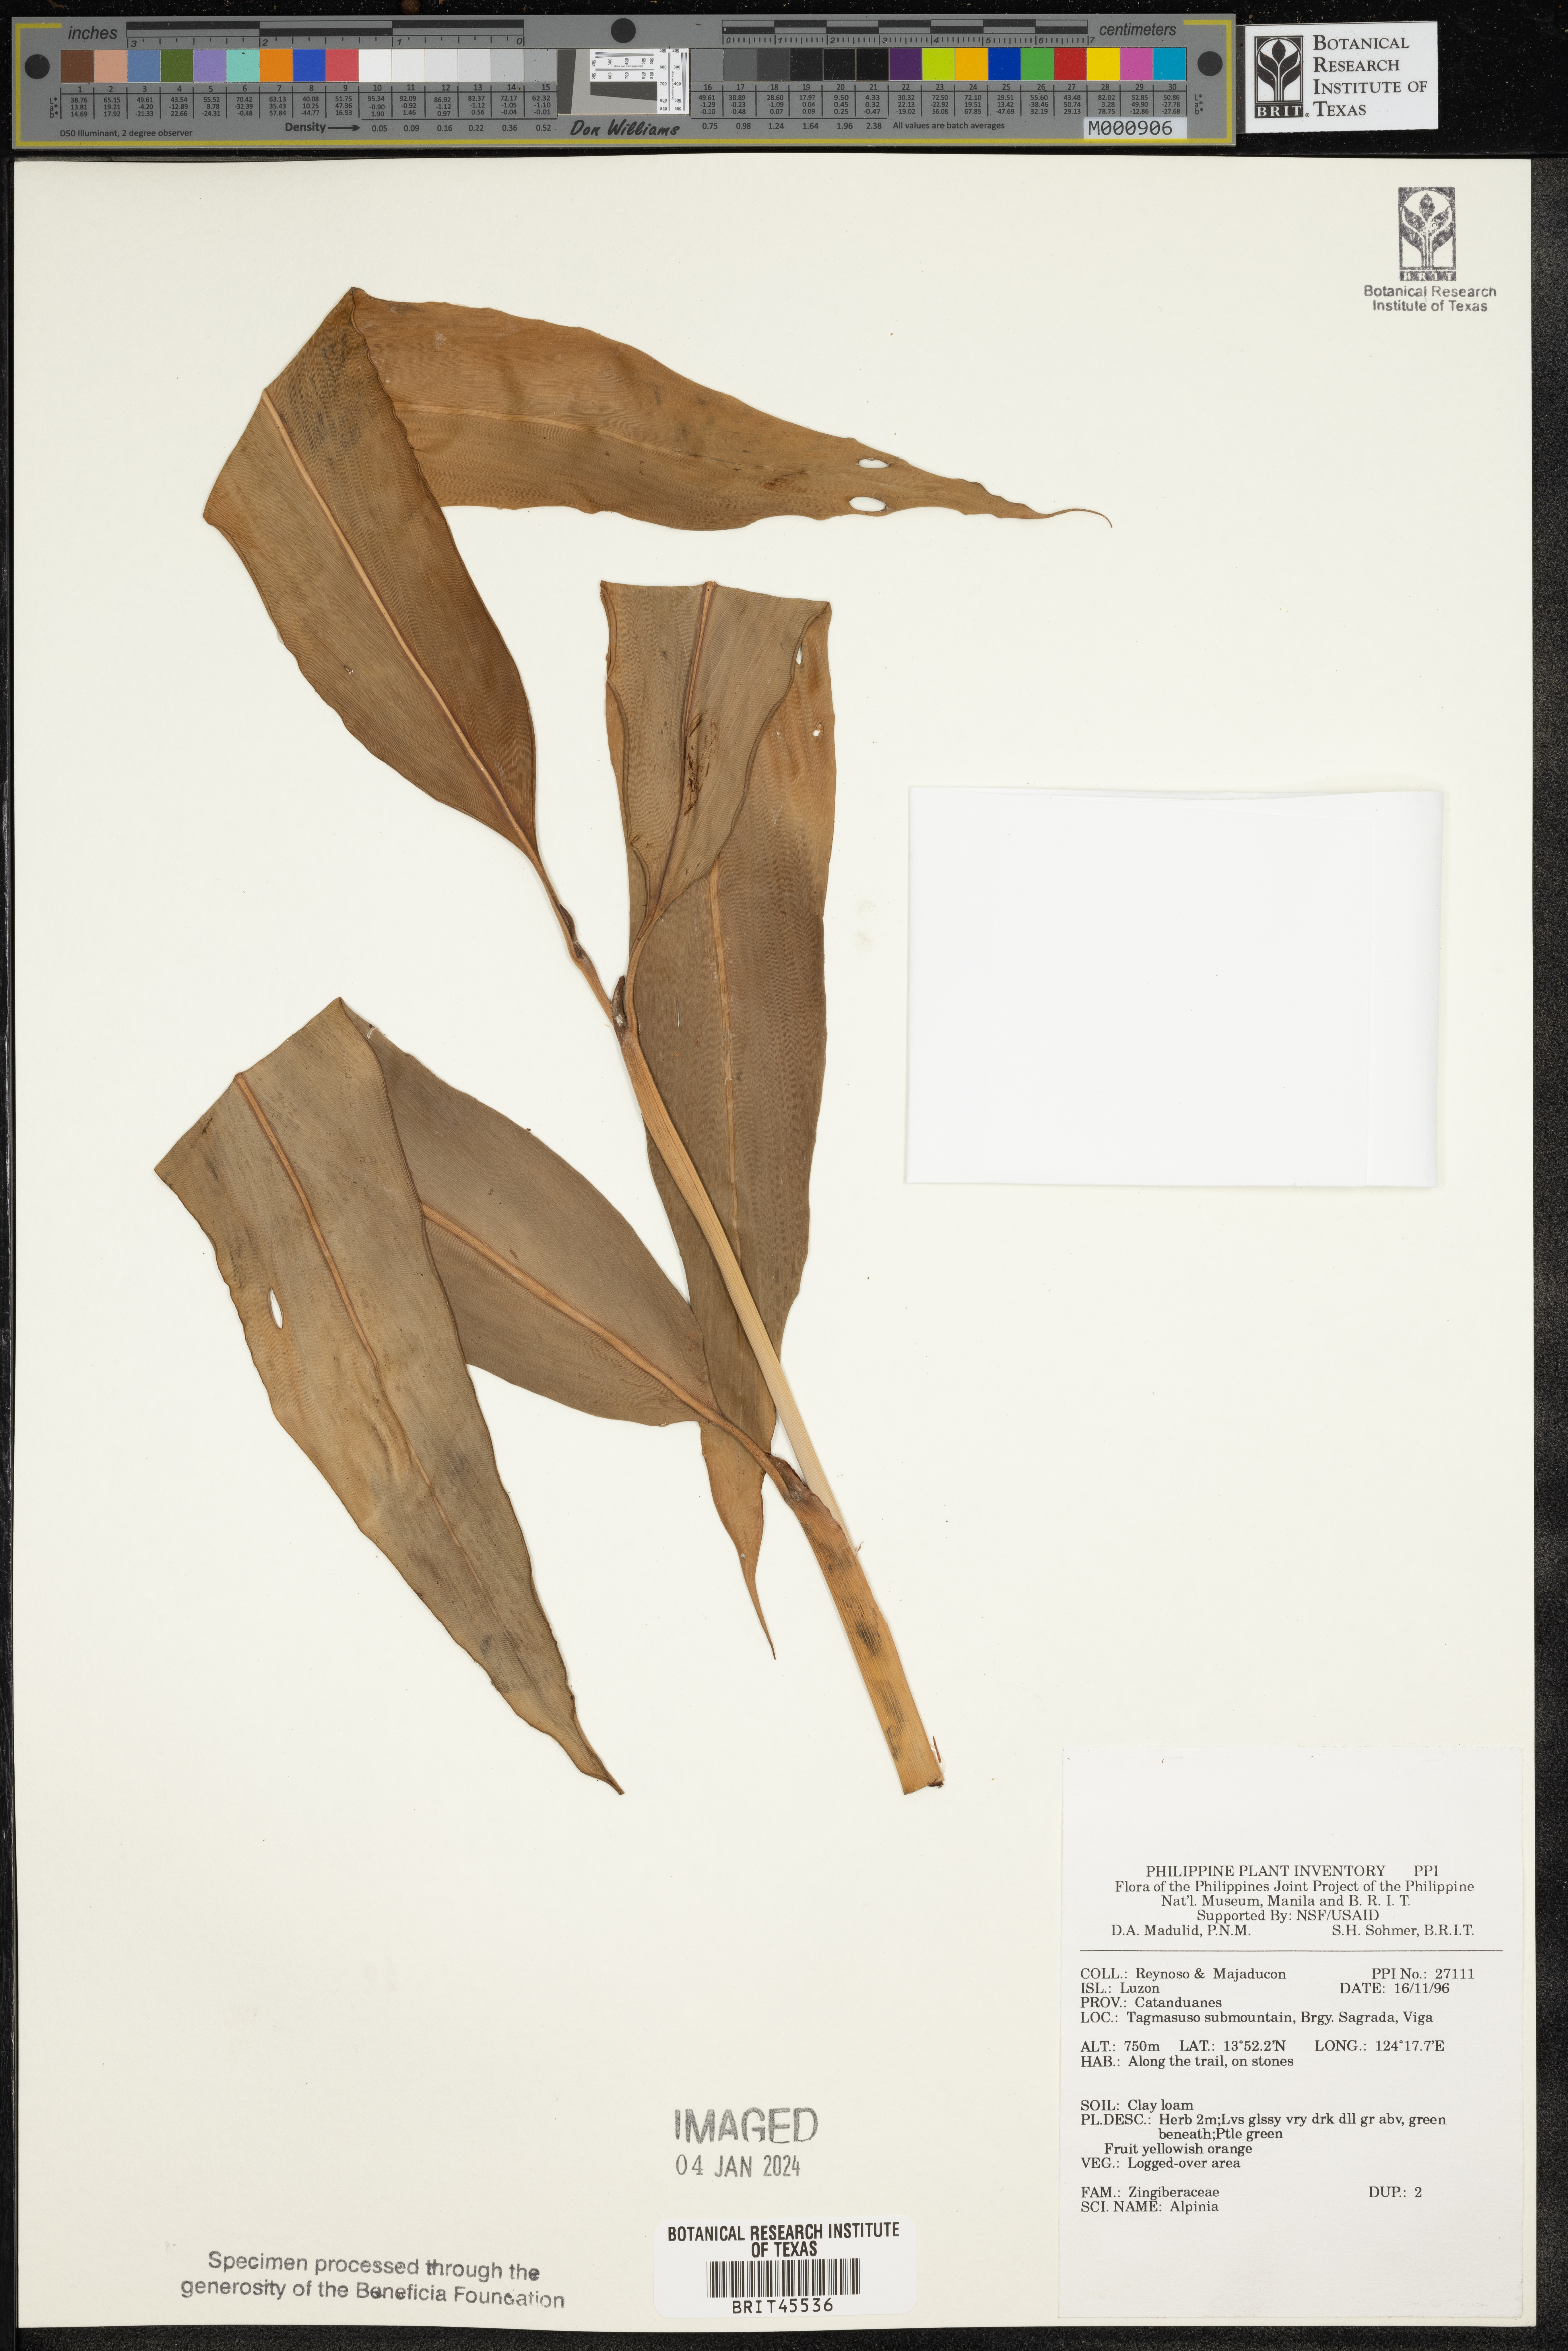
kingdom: Plantae
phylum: Tracheophyta
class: Liliopsida
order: Zingiberales
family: Zingiberaceae
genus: Alpinia
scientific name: Alpinia
